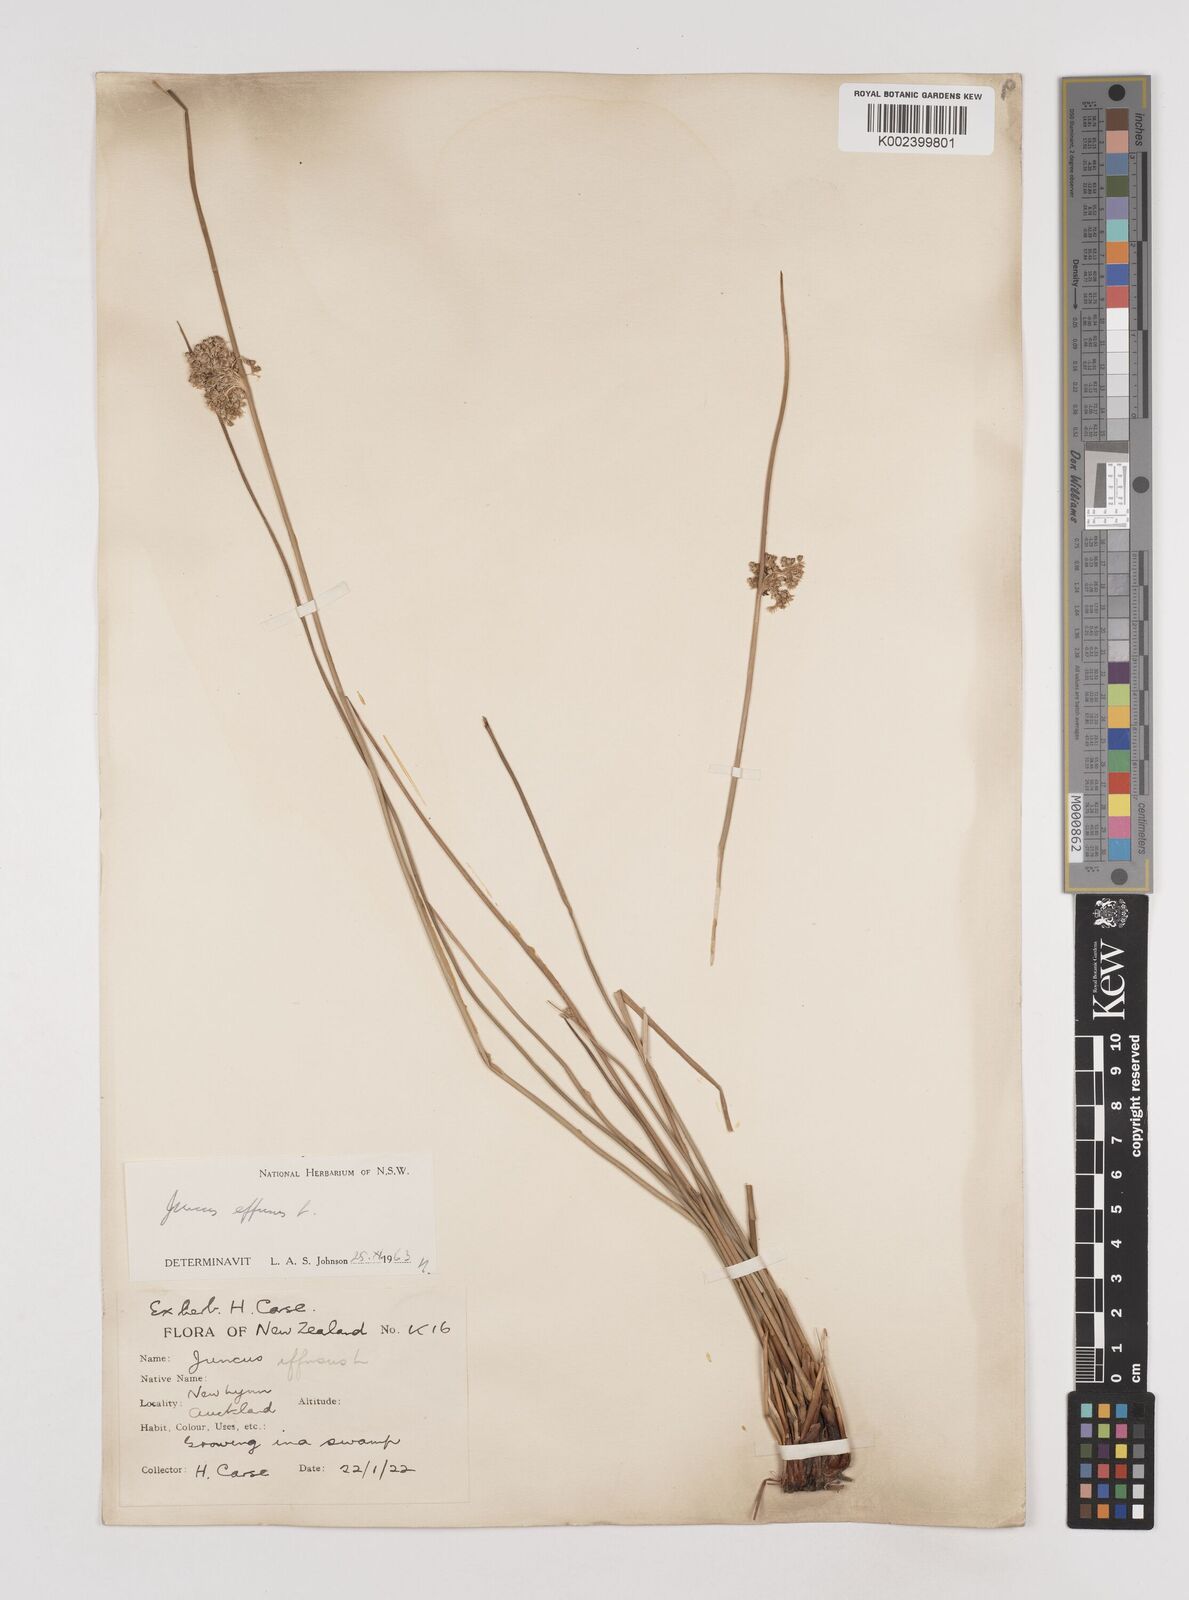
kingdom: Plantae
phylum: Tracheophyta
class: Liliopsida
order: Poales
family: Juncaceae
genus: Juncus
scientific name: Juncus effusus
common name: Soft rush
